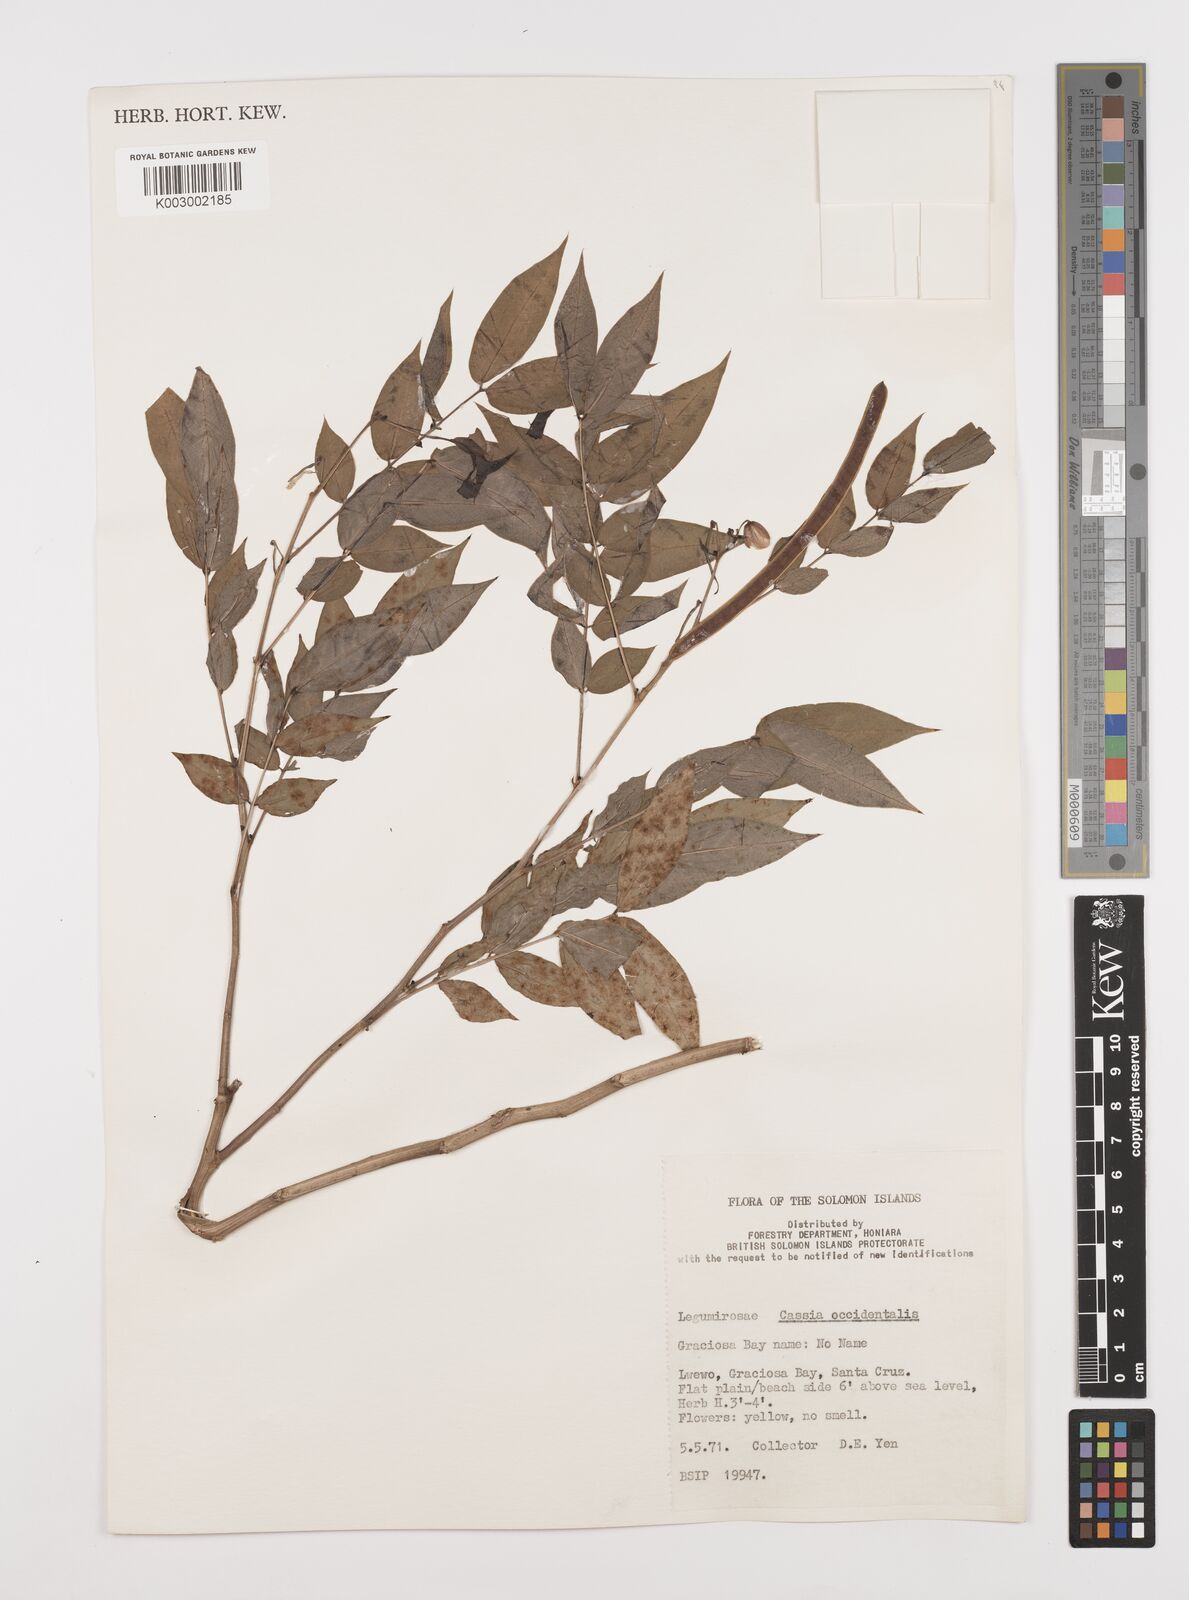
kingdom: Plantae
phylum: Tracheophyta
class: Magnoliopsida
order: Fabales
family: Fabaceae
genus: Senna
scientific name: Senna occidentalis
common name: Septicweed
